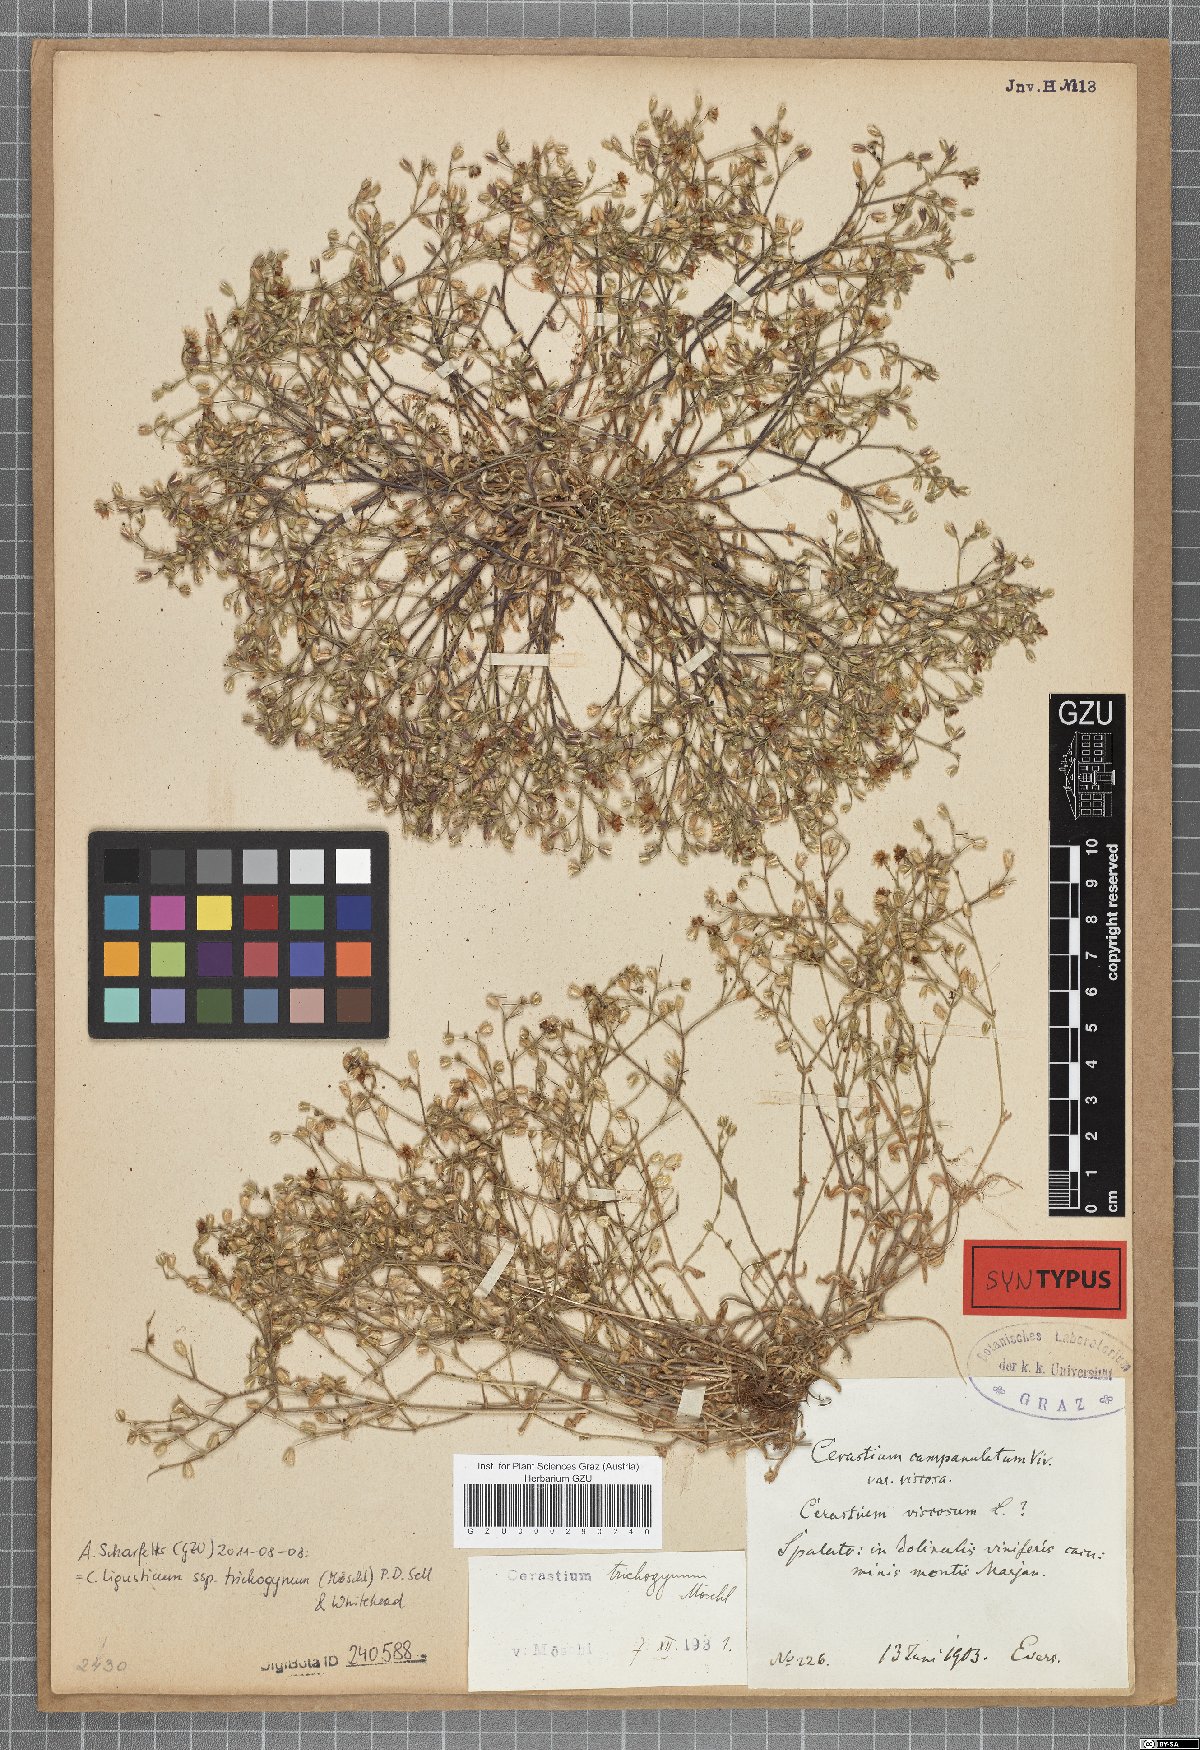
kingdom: Plantae
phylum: Tracheophyta
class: Magnoliopsida
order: Caryophyllales
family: Caryophyllaceae
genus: Cerastium
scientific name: Cerastium ligusticum
